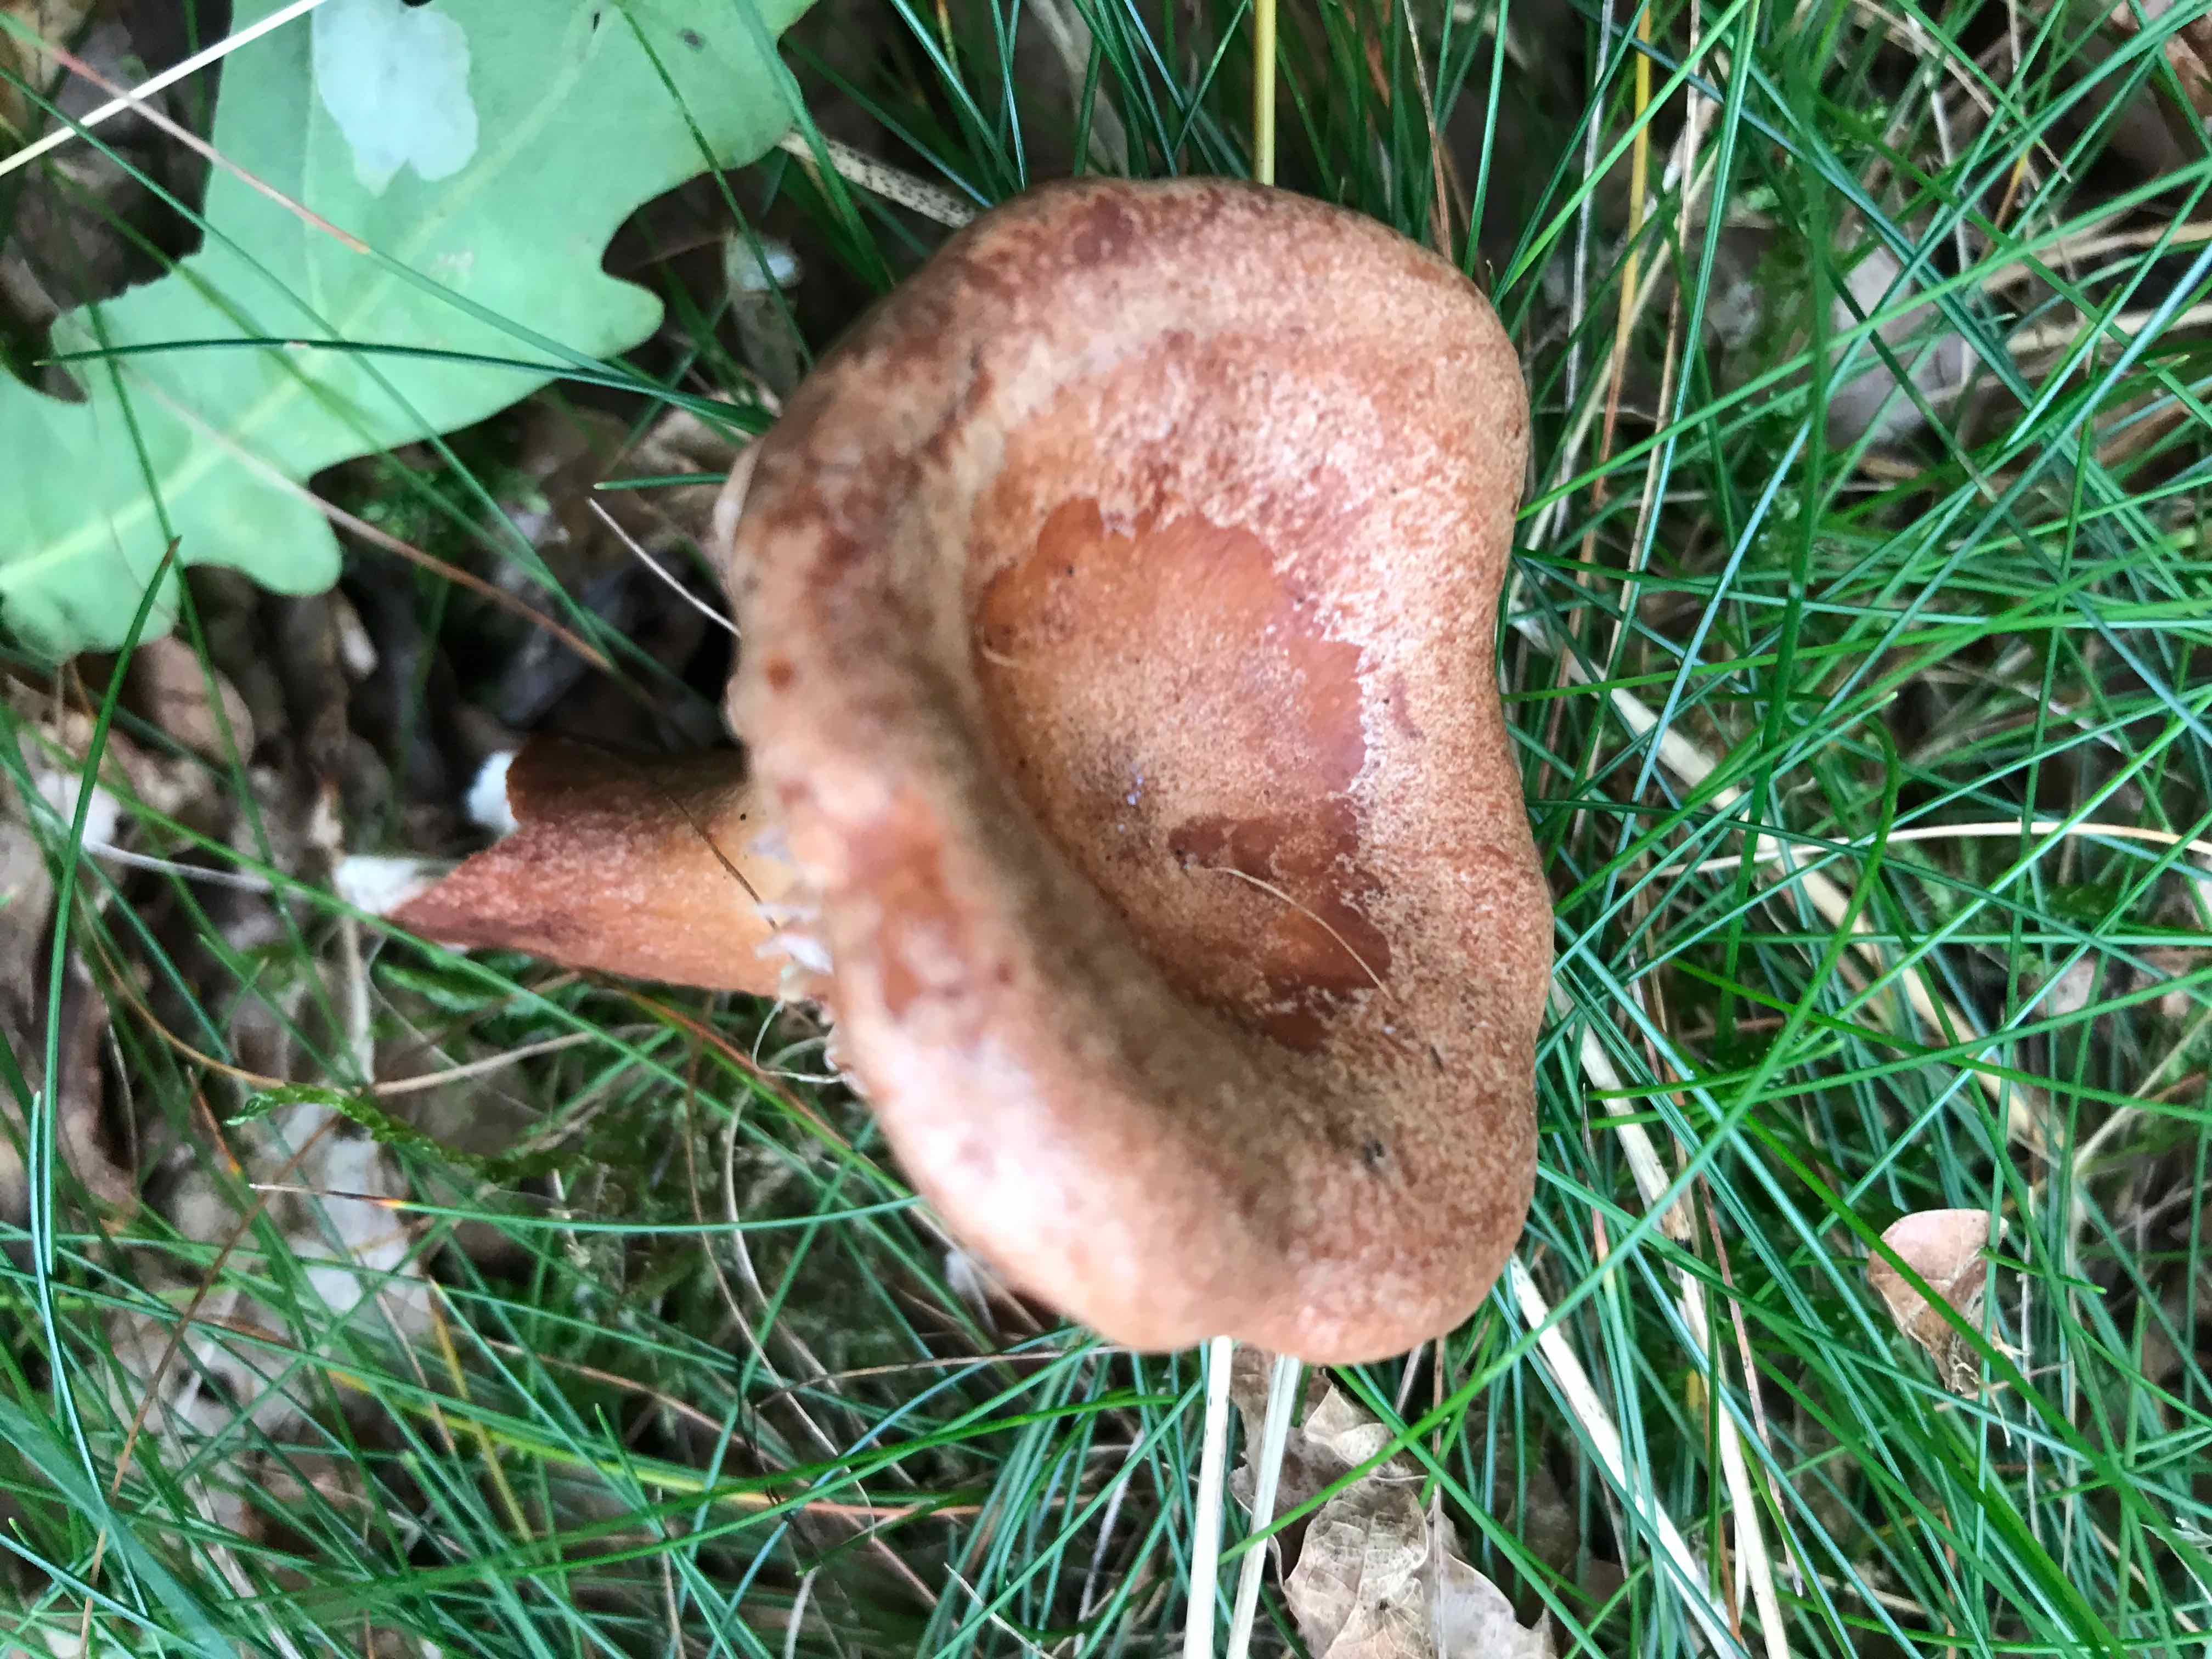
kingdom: Fungi
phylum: Basidiomycota
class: Agaricomycetes
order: Russulales
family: Russulaceae
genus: Lactarius
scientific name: Lactarius quietus
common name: ege-mælkehat
